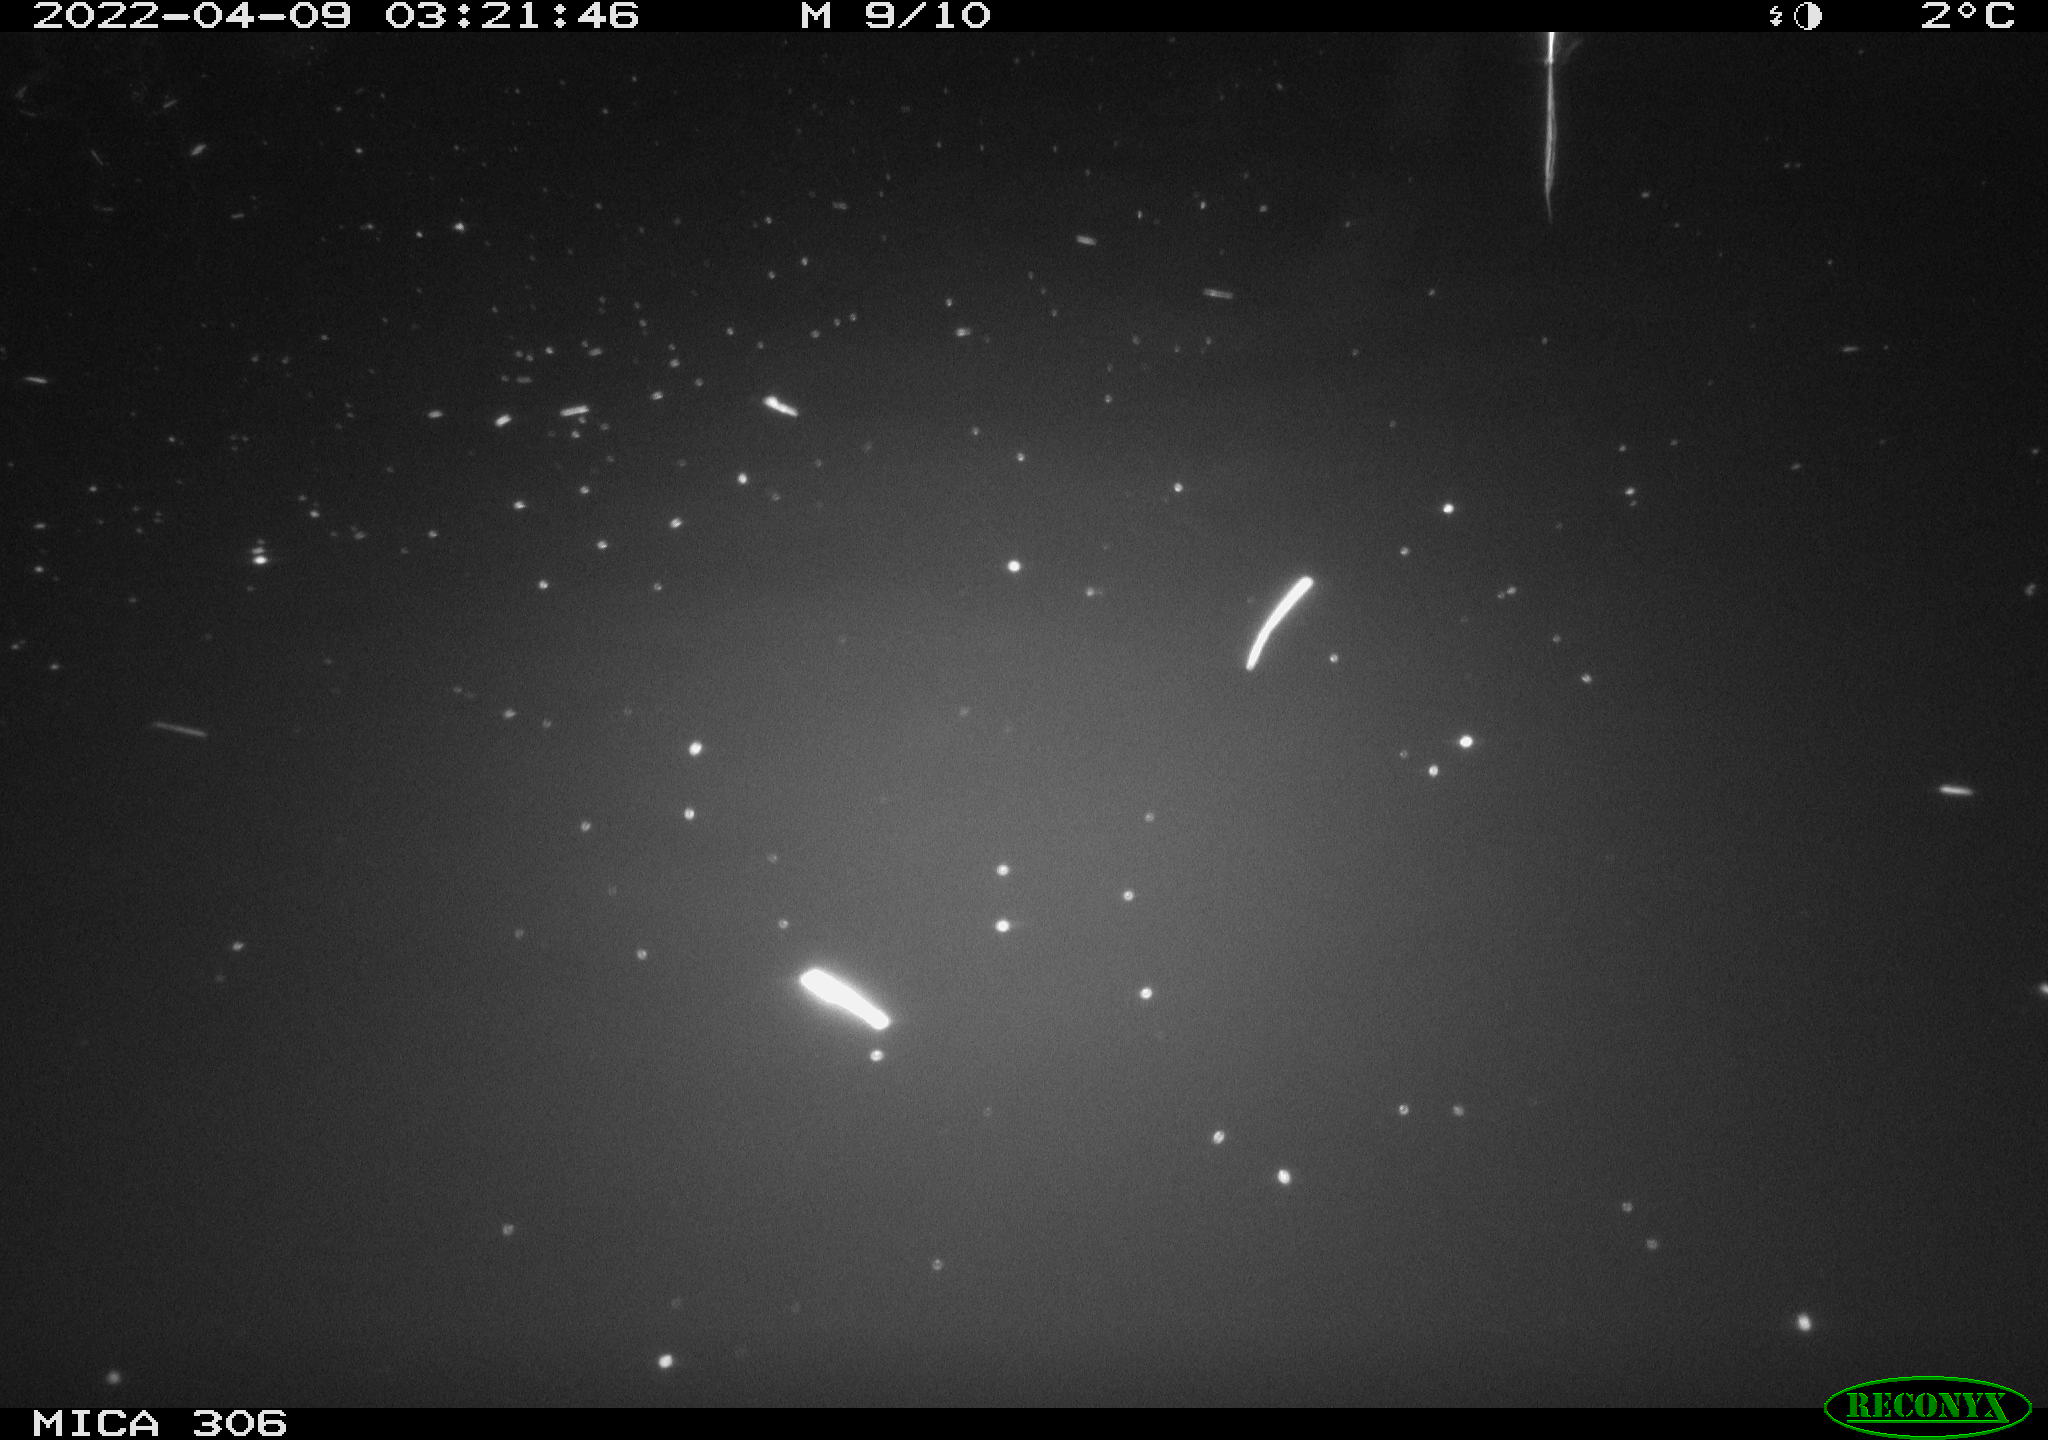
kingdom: Animalia
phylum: Chordata
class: Mammalia
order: Rodentia
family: Cricetidae
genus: Ondatra
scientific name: Ondatra zibethicus
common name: Muskrat
